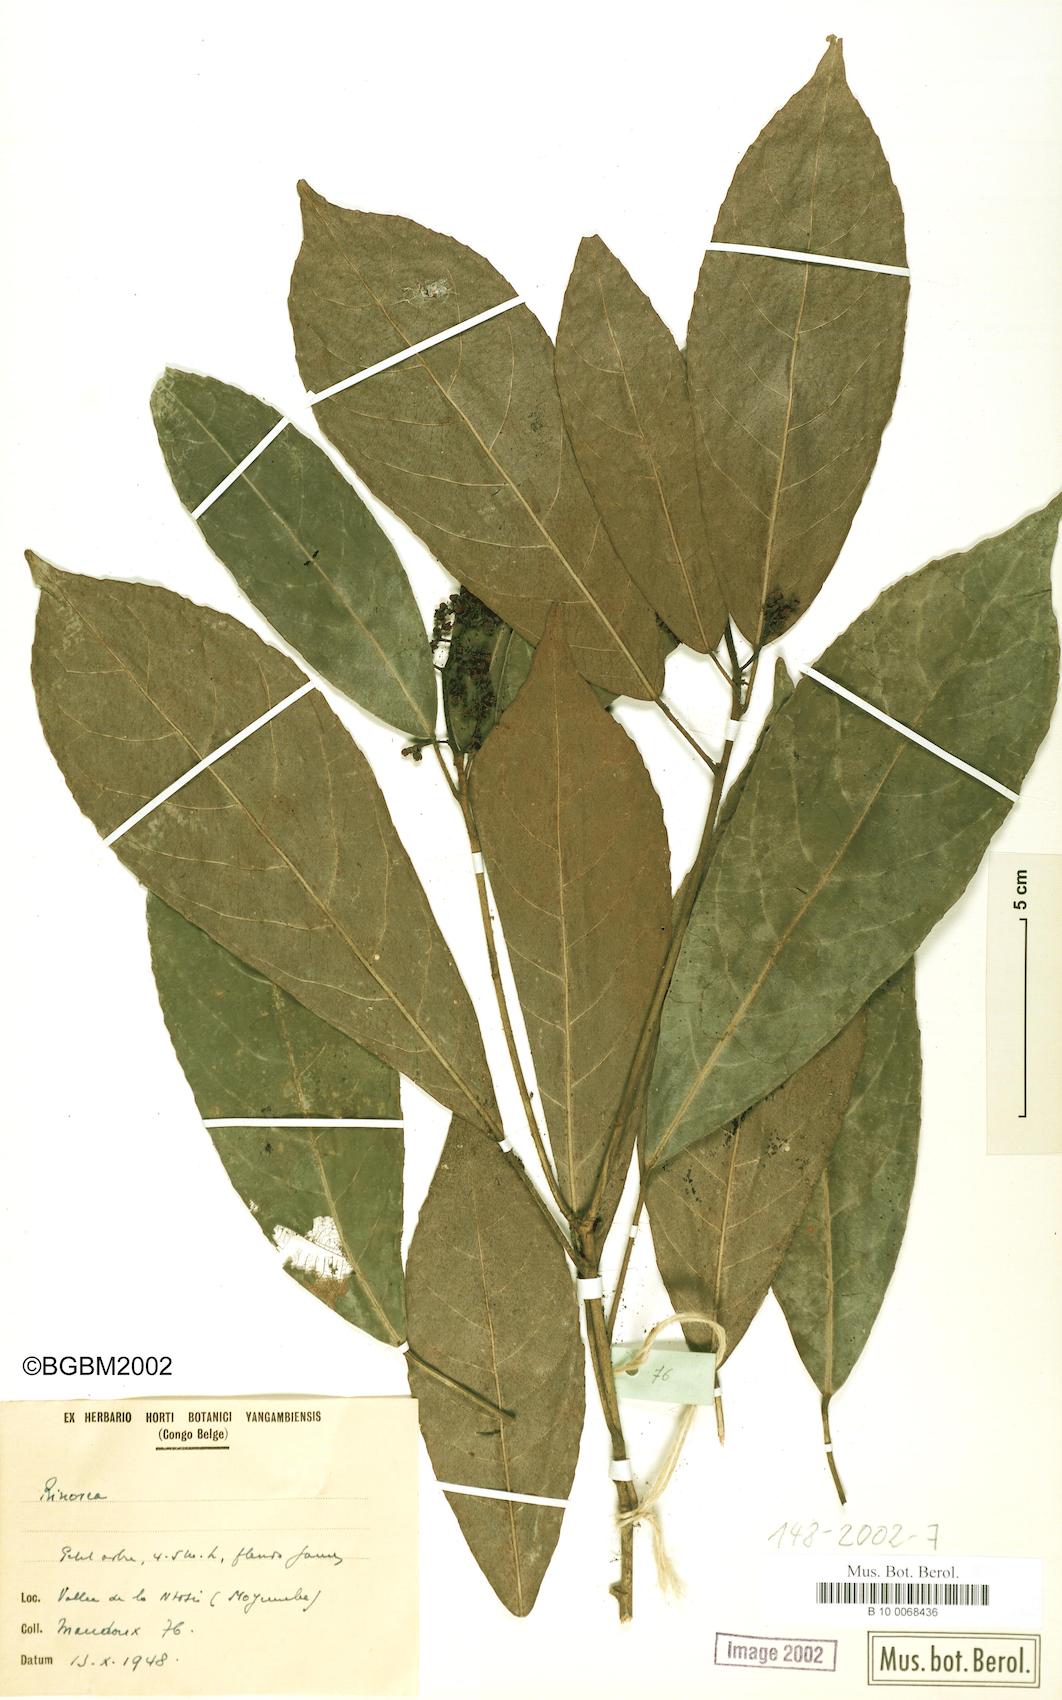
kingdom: Plantae
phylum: Tracheophyta
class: Magnoliopsida
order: Malpighiales
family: Violaceae
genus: Rinorea
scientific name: Rinorea
